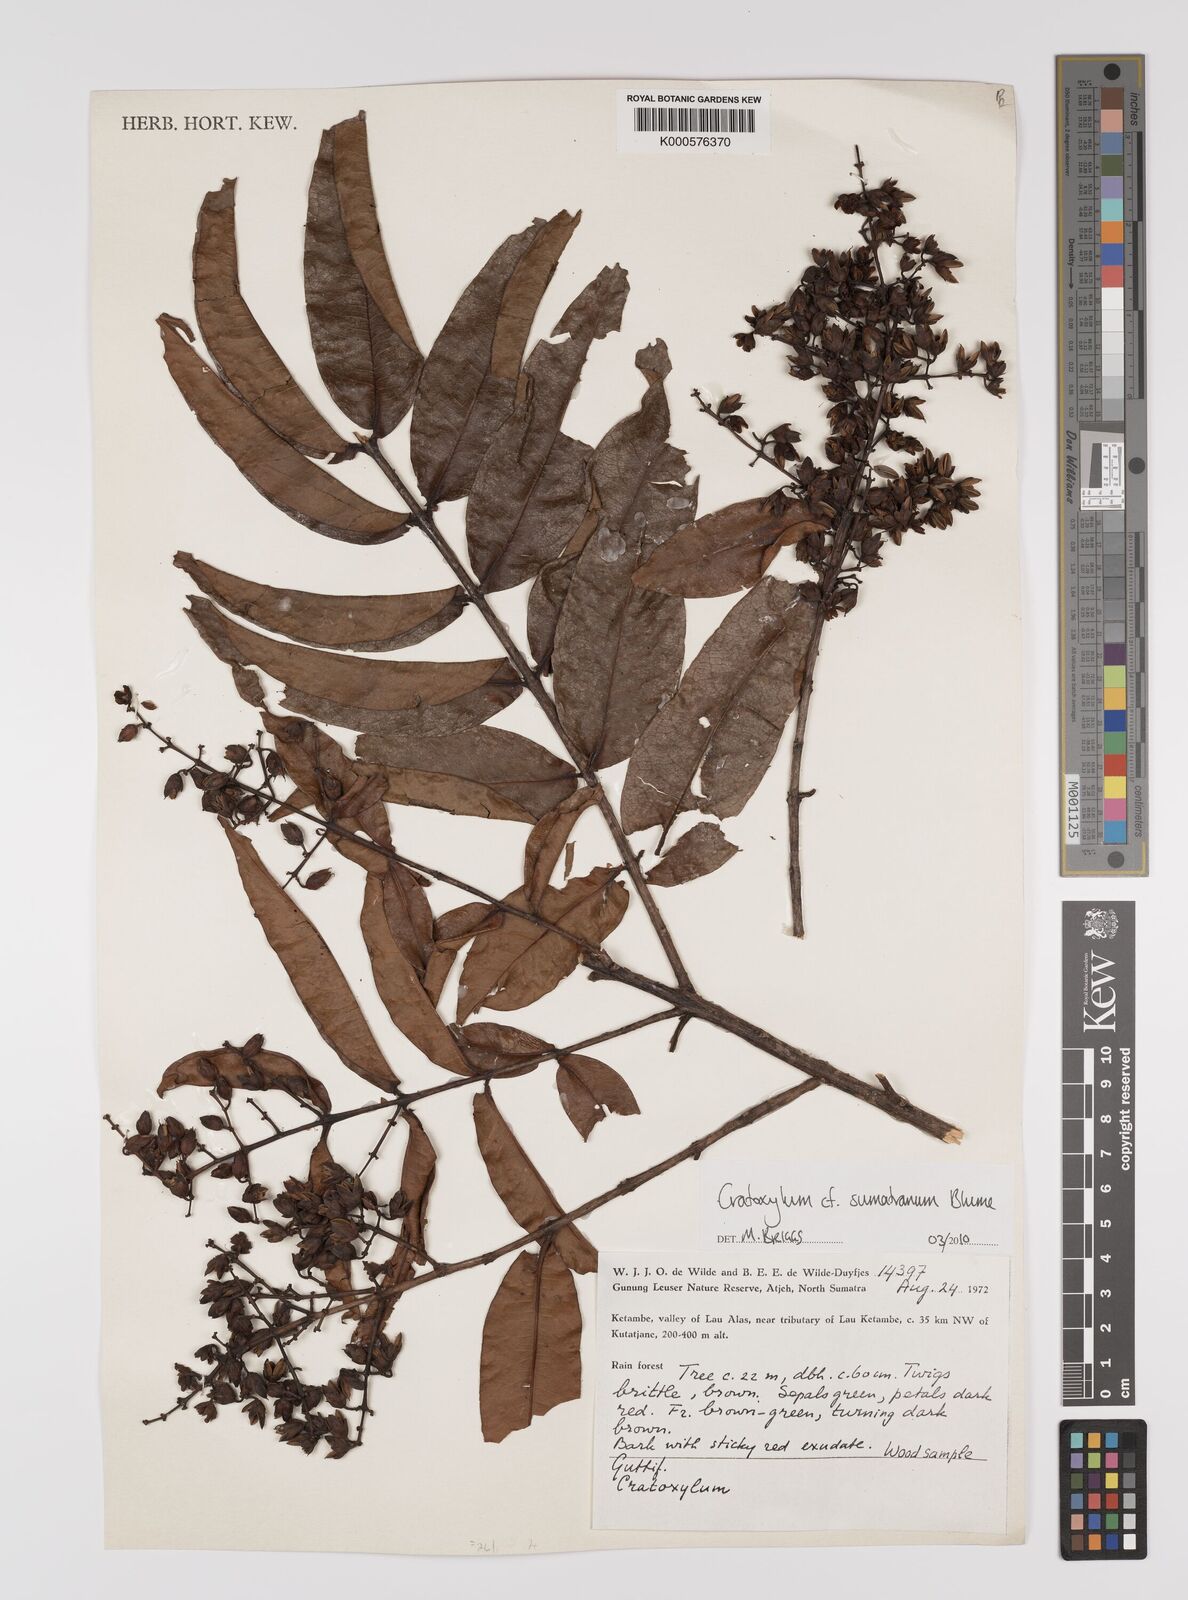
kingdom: Plantae
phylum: Tracheophyta
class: Magnoliopsida
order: Malpighiales
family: Hypericaceae
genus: Cratoxylum
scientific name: Cratoxylum sumatranum
